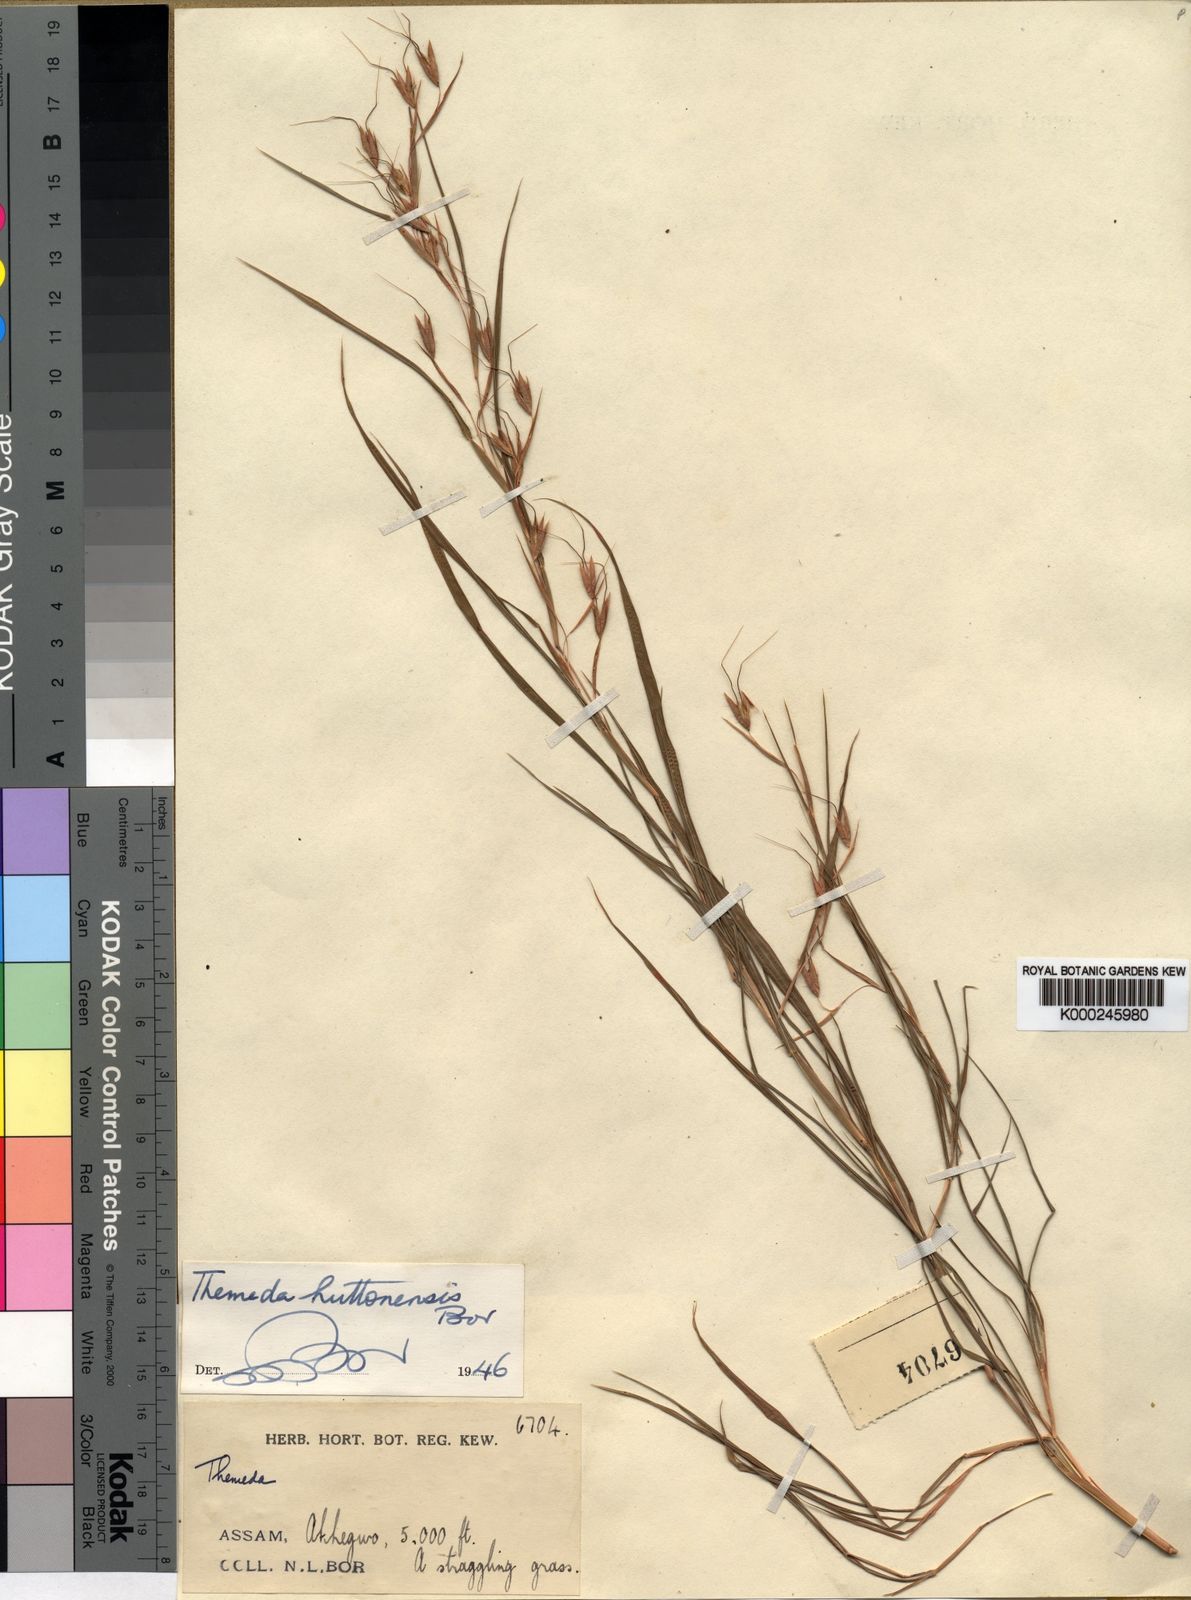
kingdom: Plantae
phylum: Tracheophyta
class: Liliopsida
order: Poales
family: Poaceae
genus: Themeda
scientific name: Themeda huttonensis
